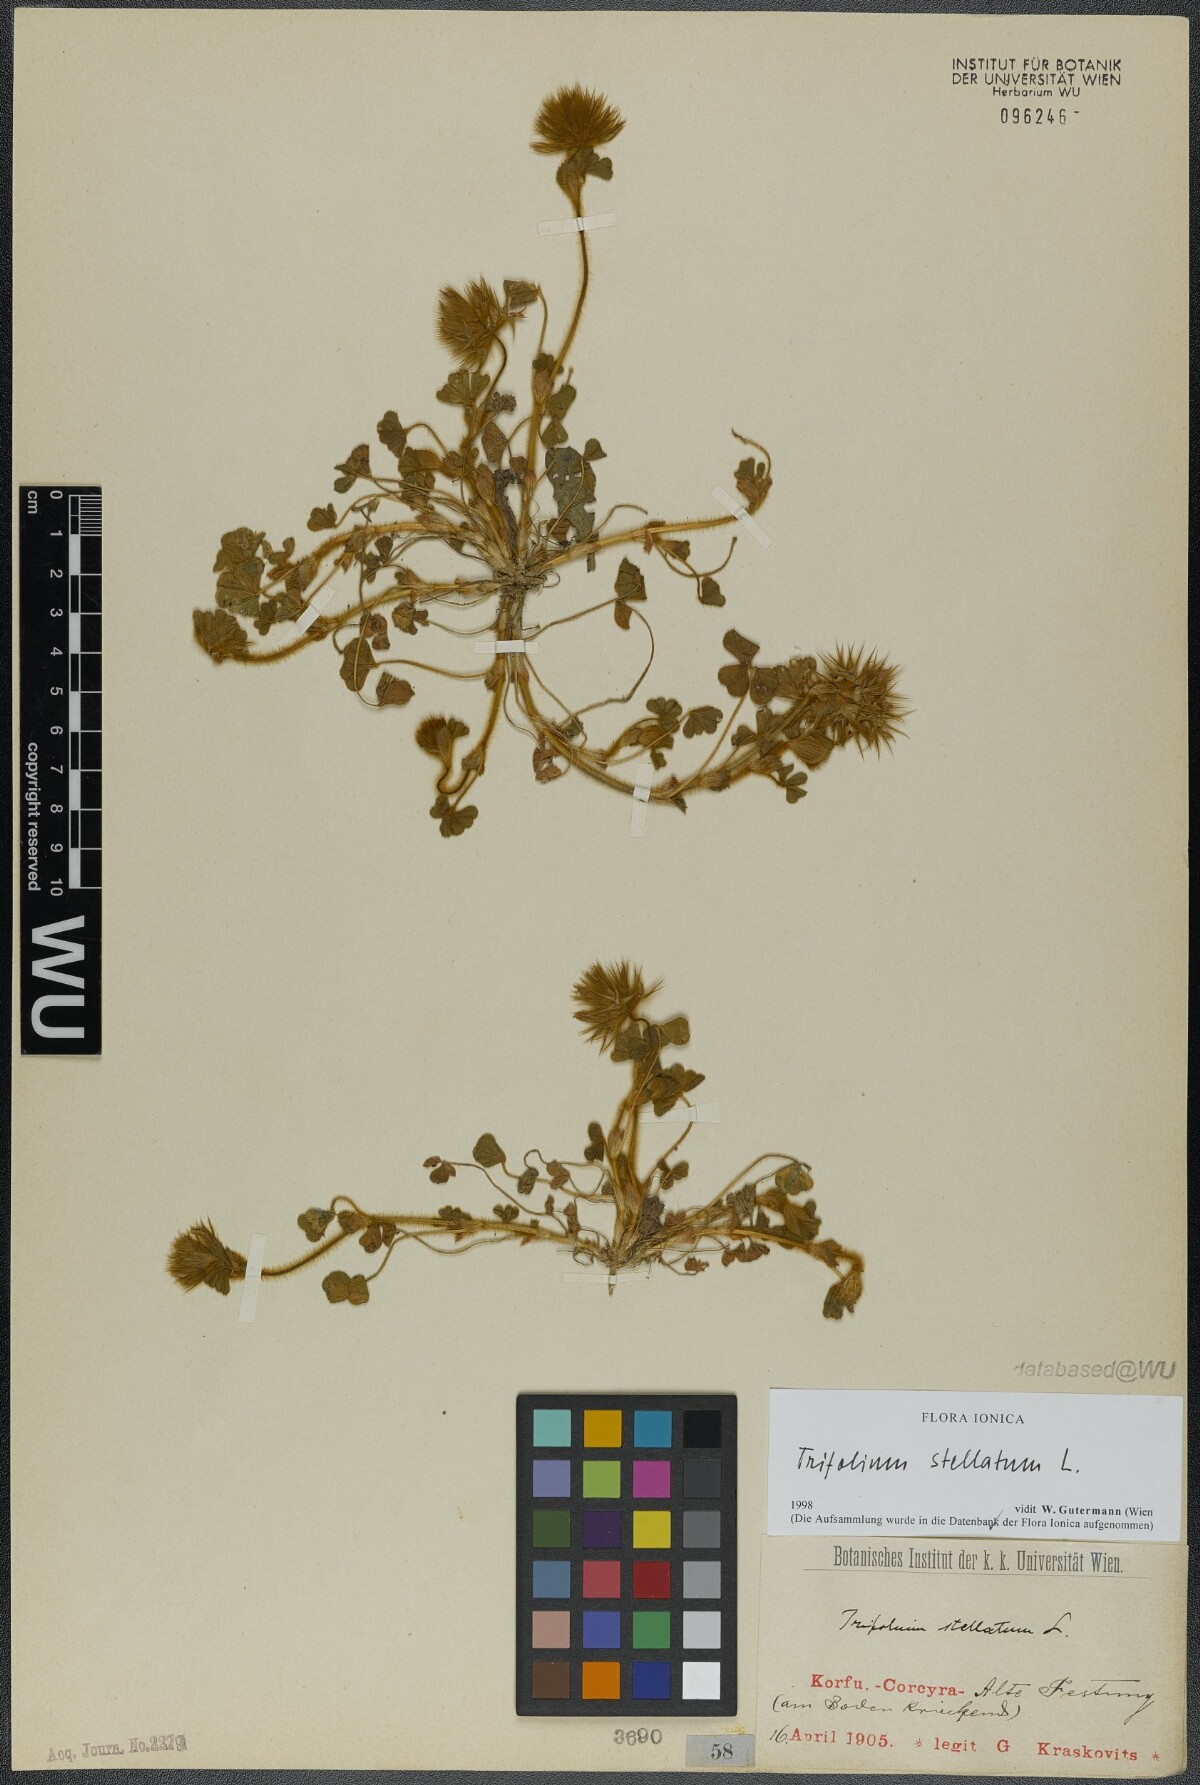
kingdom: Plantae
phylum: Tracheophyta
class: Magnoliopsida
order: Fabales
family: Fabaceae
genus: Trifolium
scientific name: Trifolium stellatum
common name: Starry clover
